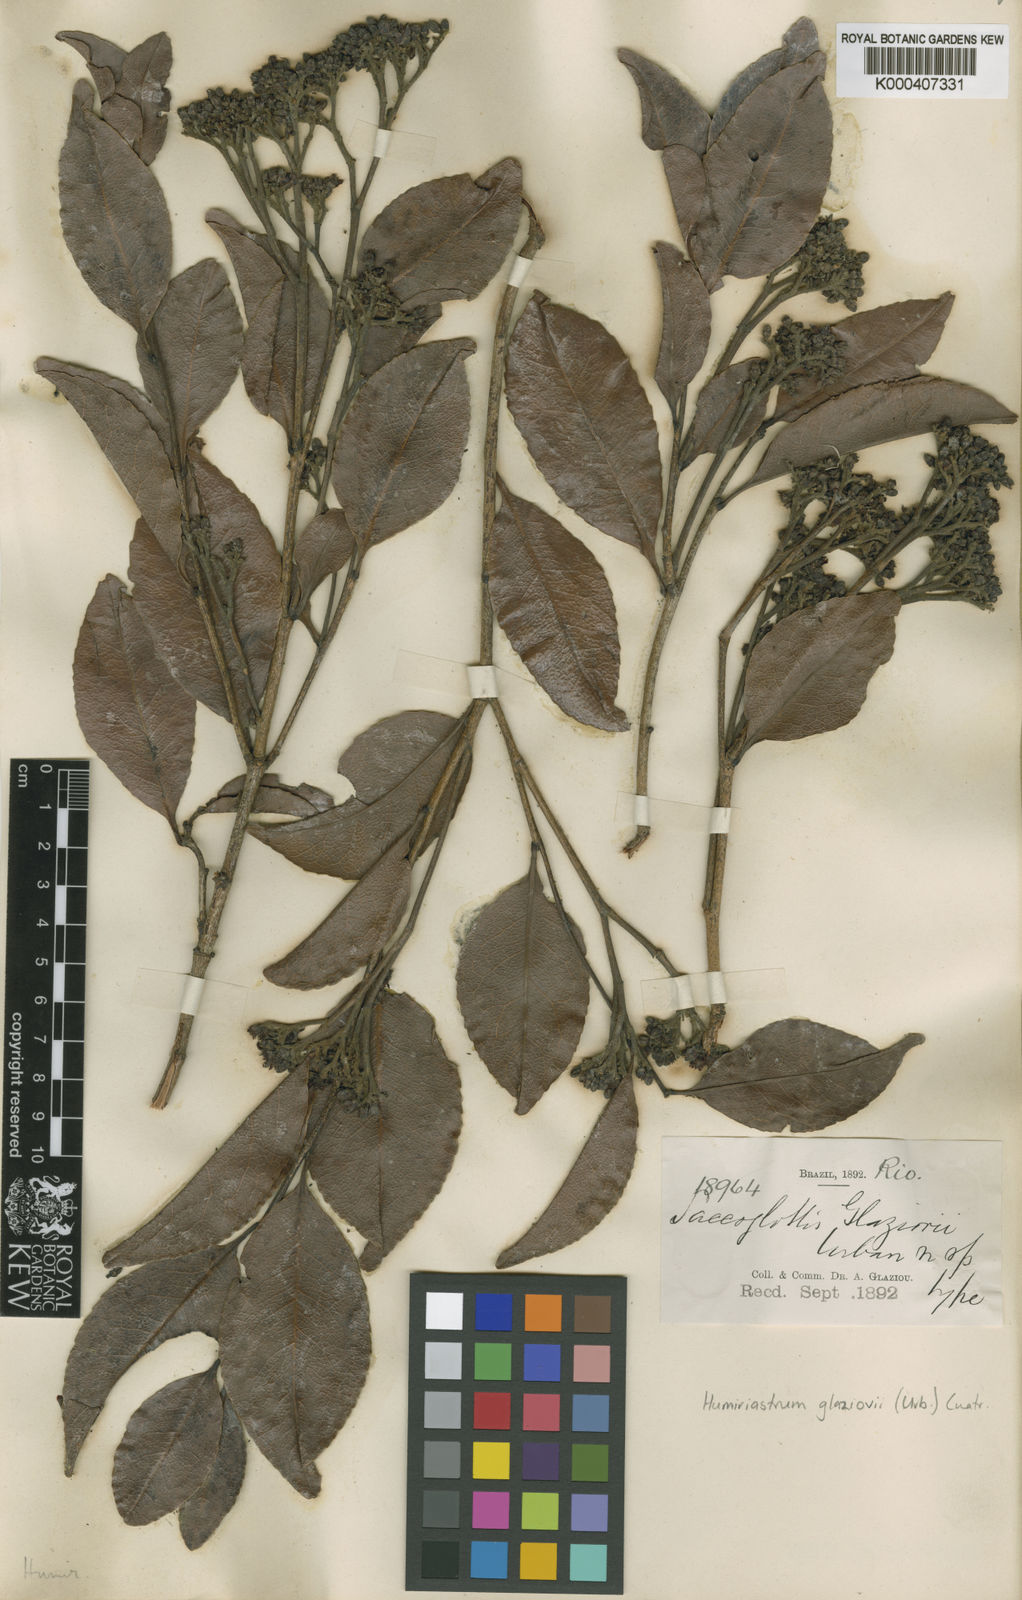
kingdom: Plantae
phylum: Tracheophyta
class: Magnoliopsida
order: Malpighiales
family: Humiriaceae
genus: Humiriastrum
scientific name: Humiriastrum glaziovii
